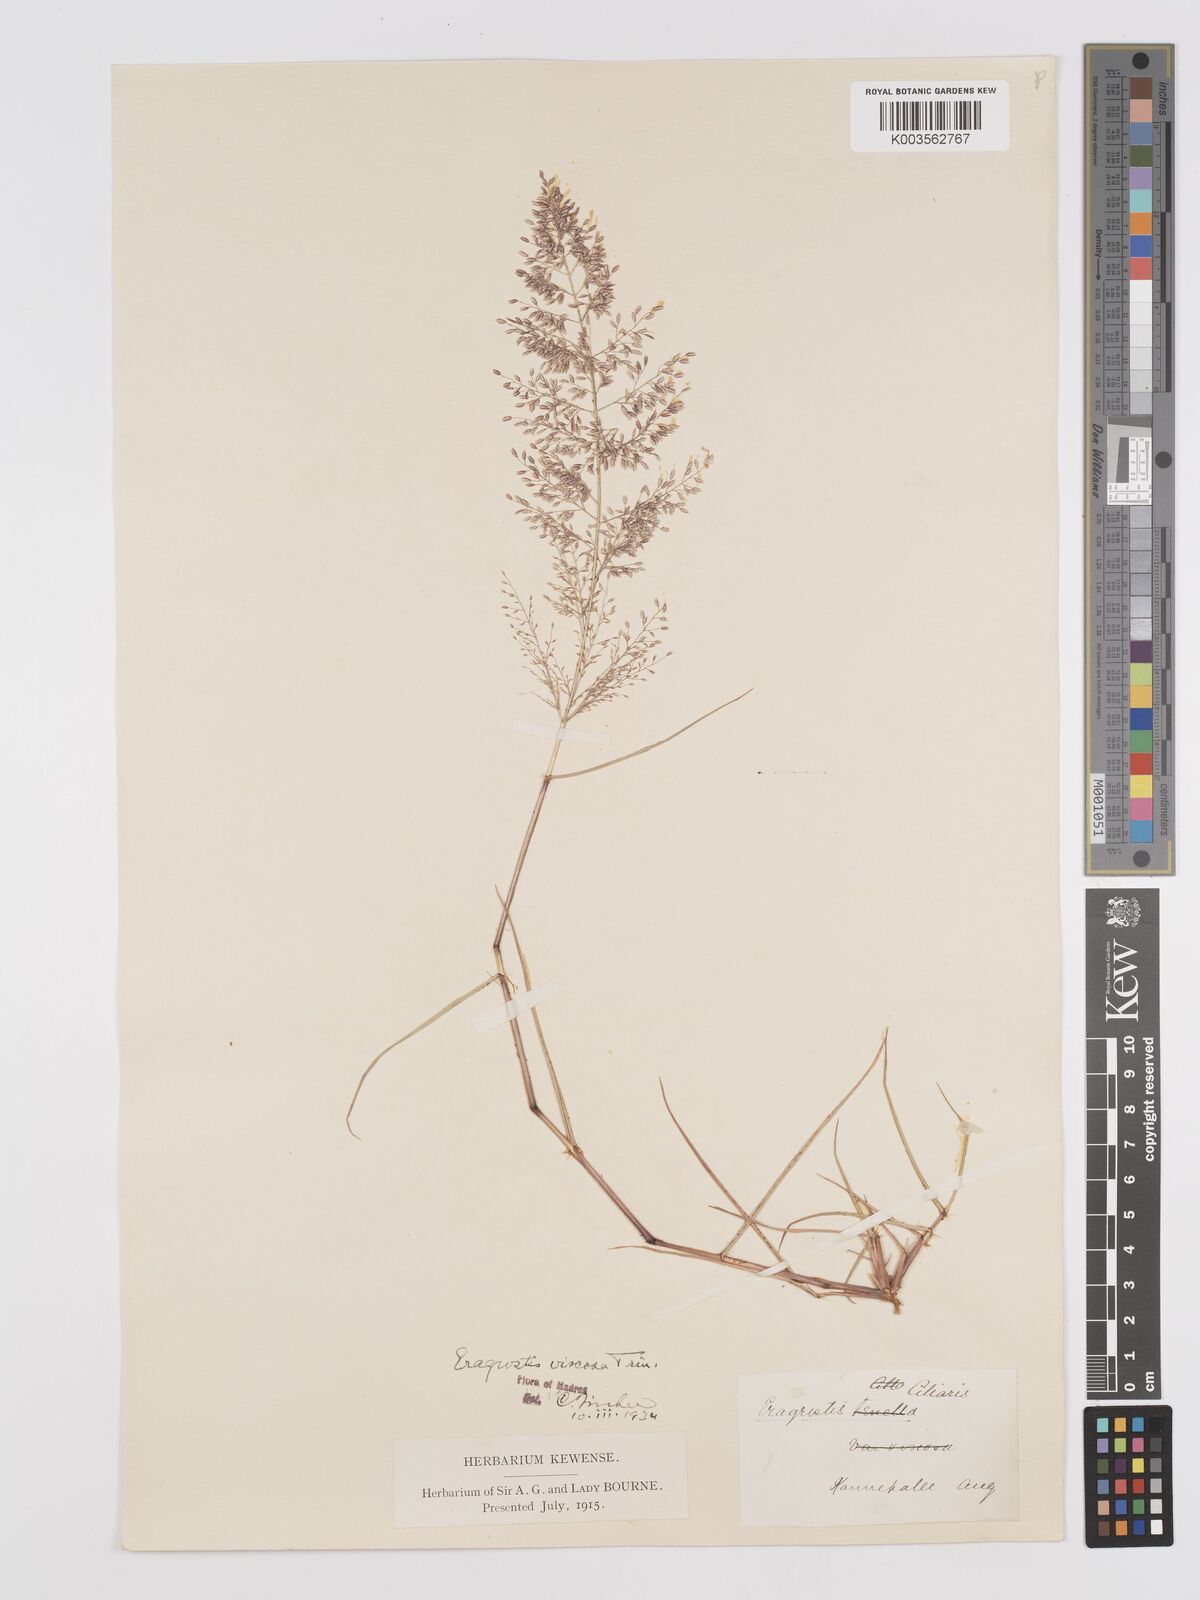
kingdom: Plantae
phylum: Tracheophyta
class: Liliopsida
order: Poales
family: Poaceae
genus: Eragrostis
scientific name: Eragrostis viscosa
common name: Sticky love grass
